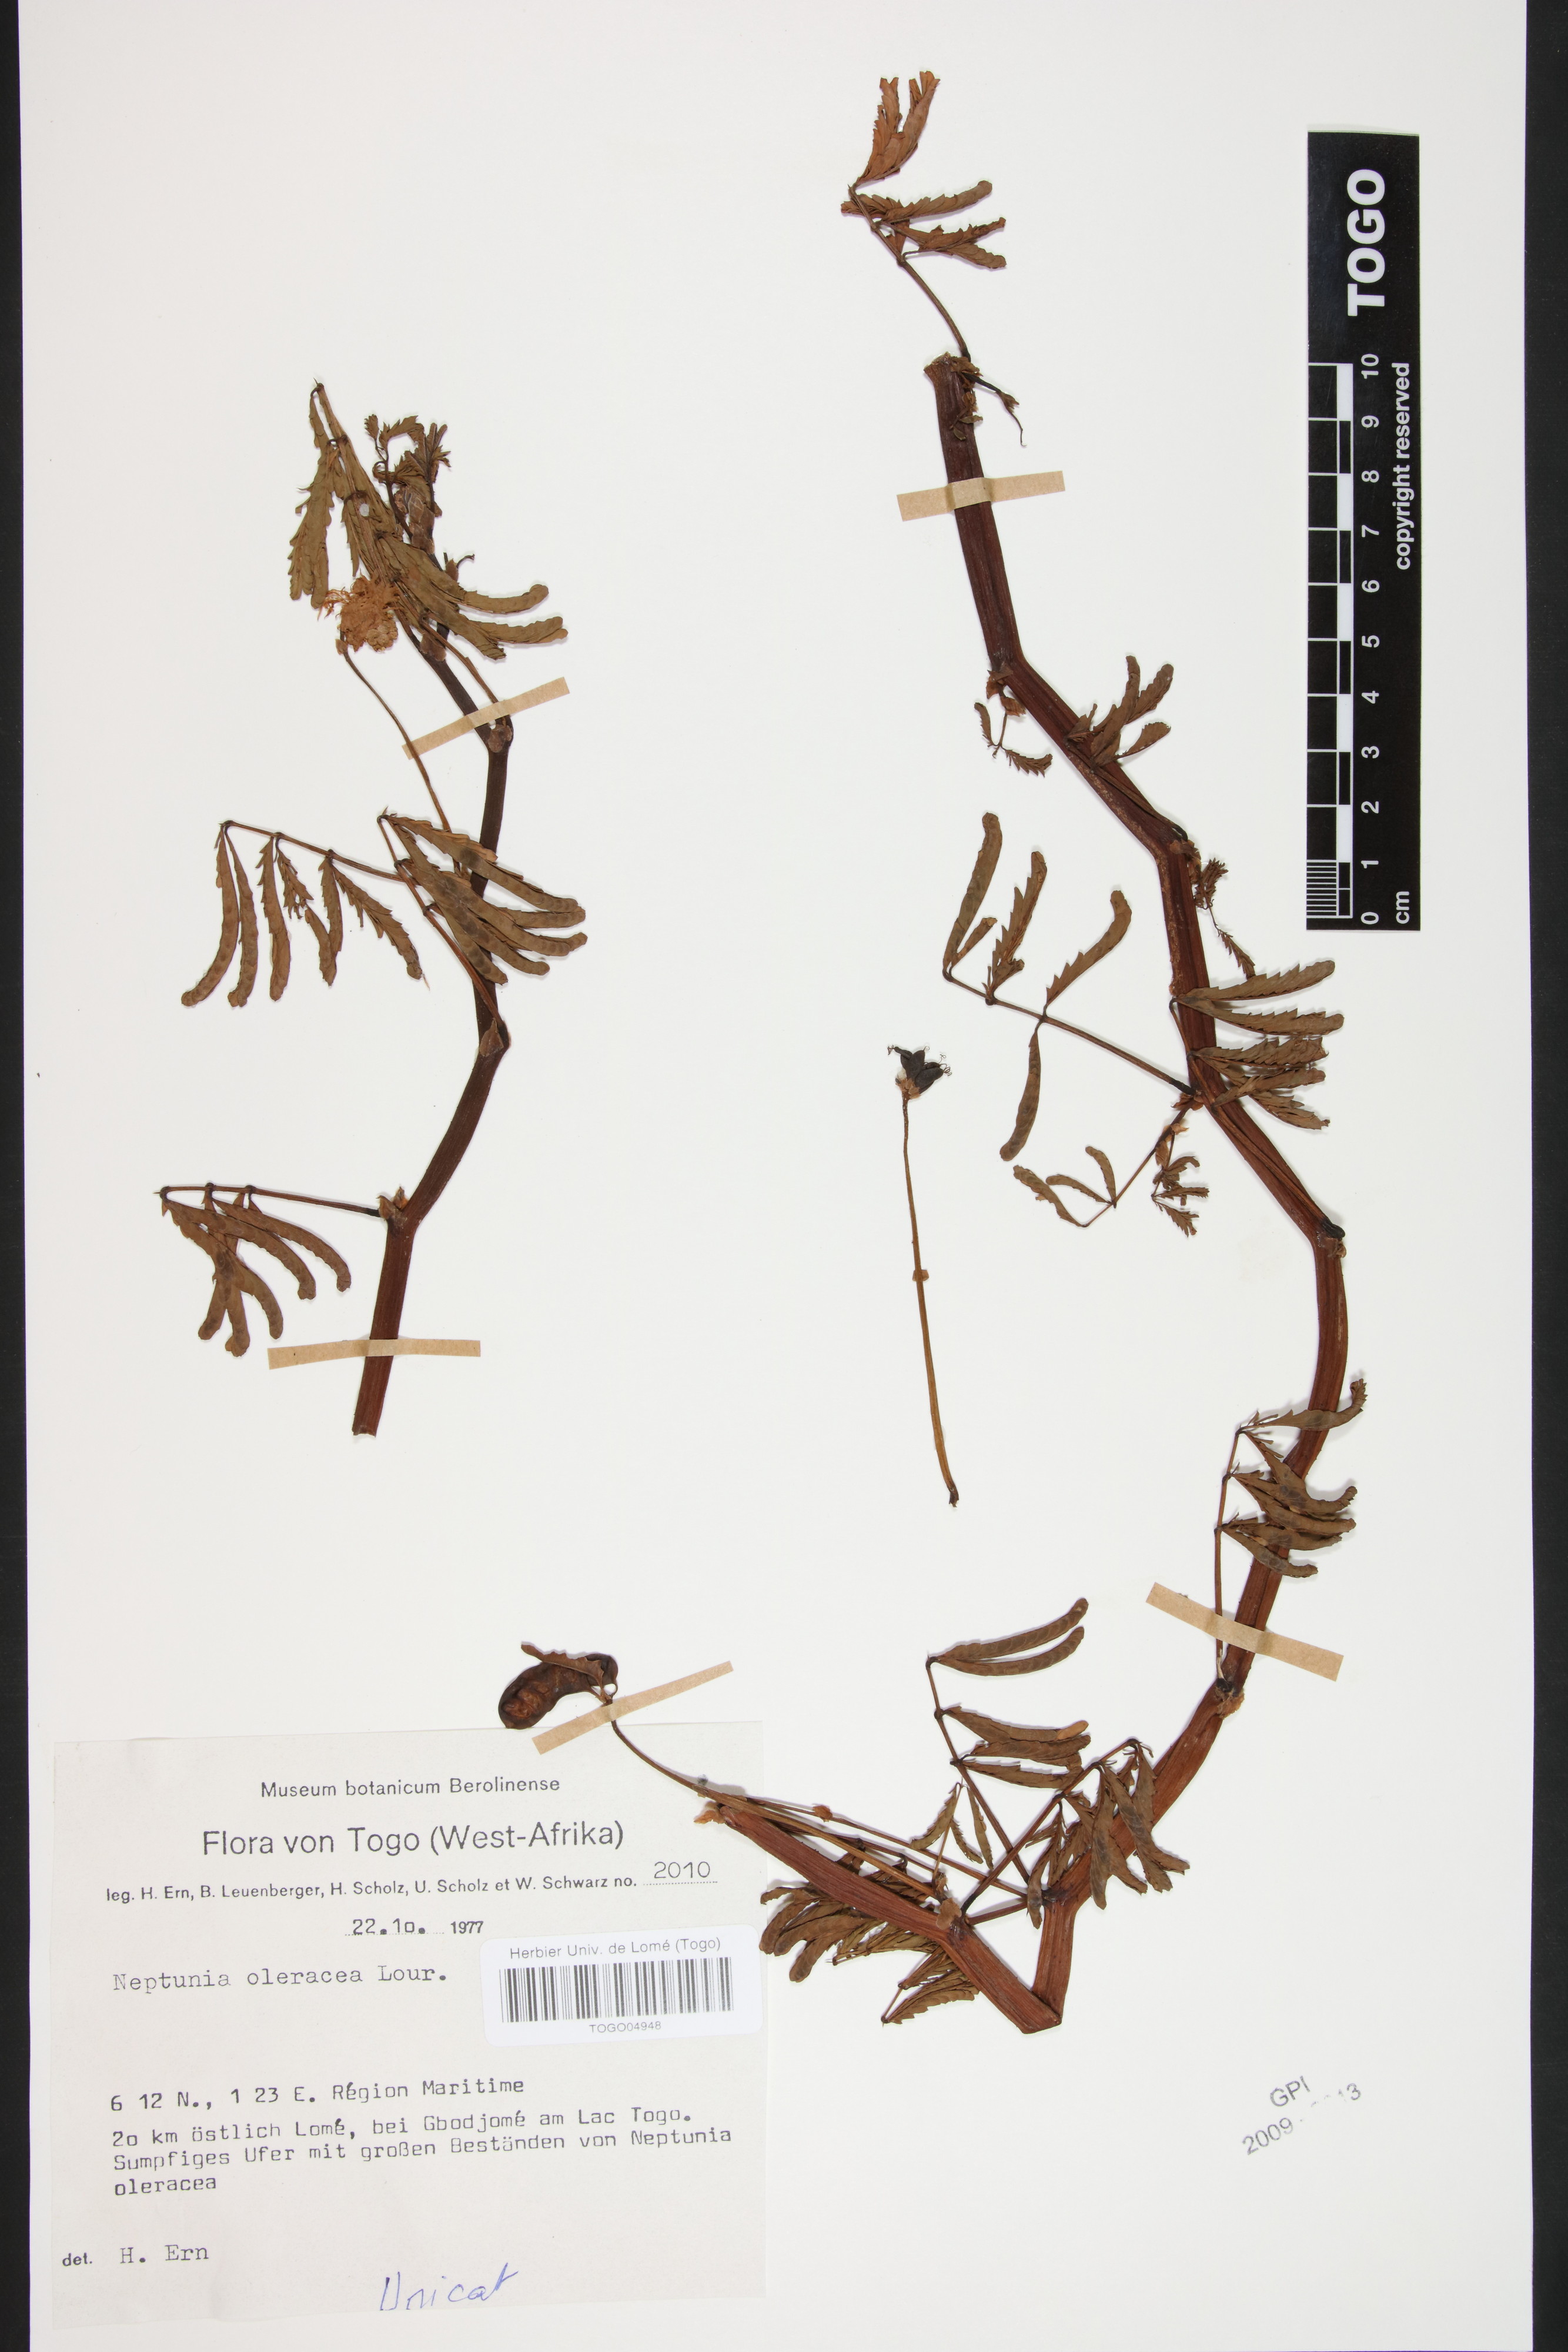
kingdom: Plantae
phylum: Tracheophyta
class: Magnoliopsida
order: Fabales
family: Fabaceae
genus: Neptunia
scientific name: Neptunia prostrata
